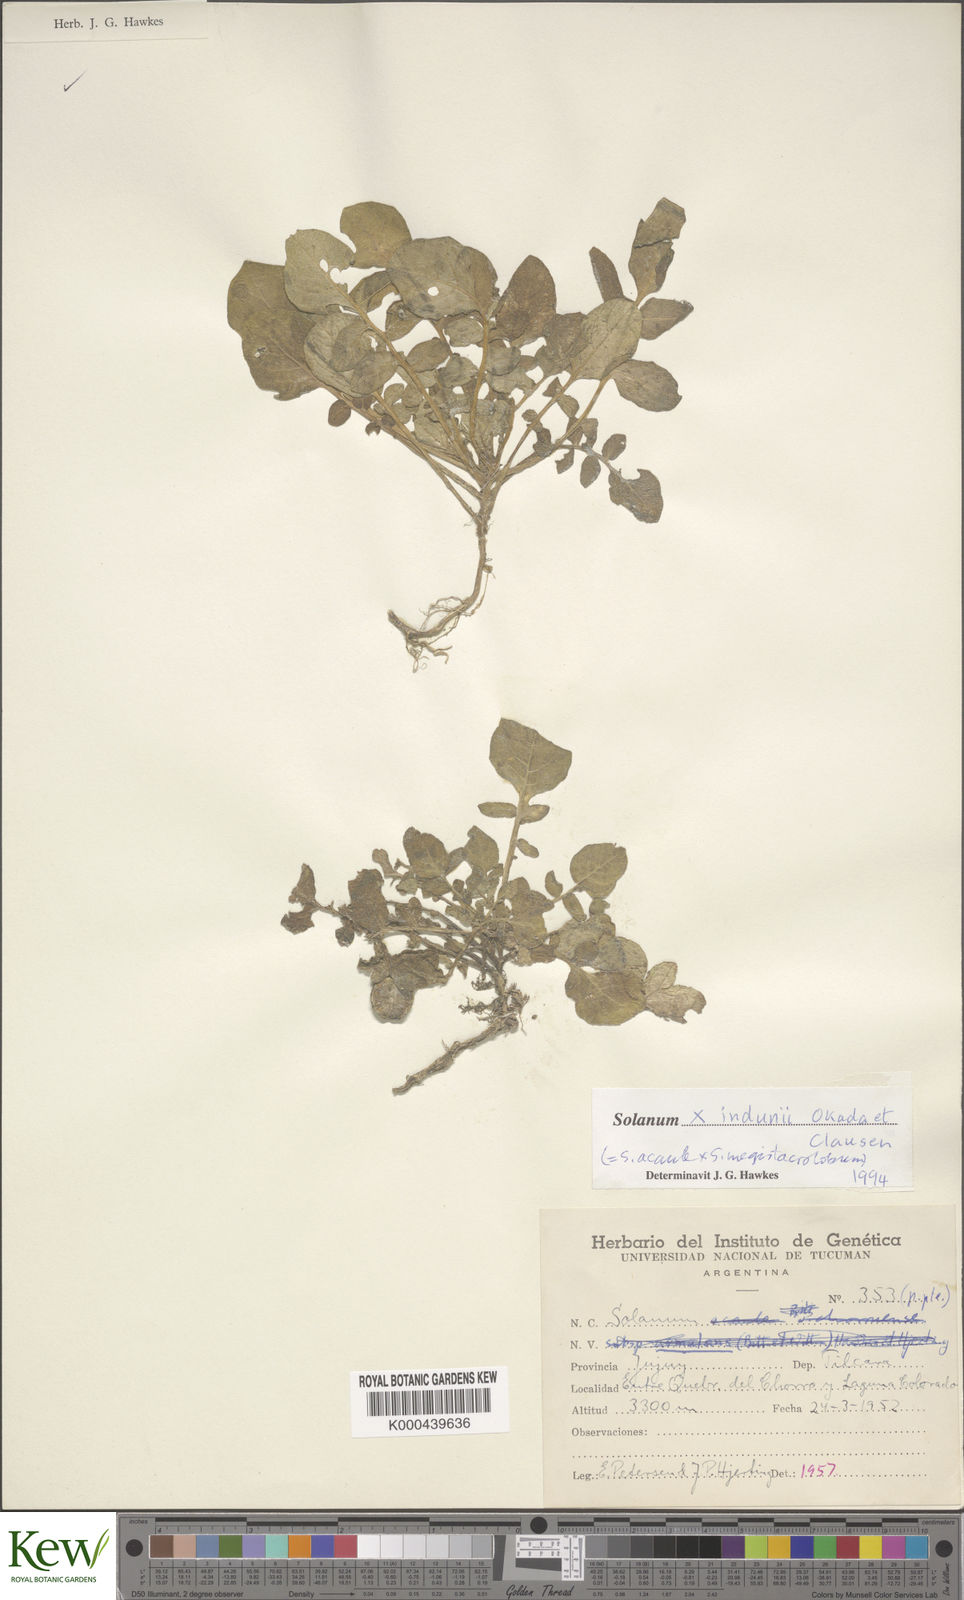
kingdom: Plantae
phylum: Tracheophyta
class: Magnoliopsida
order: Solanales
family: Solanaceae
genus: Solanum
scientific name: Solanum
